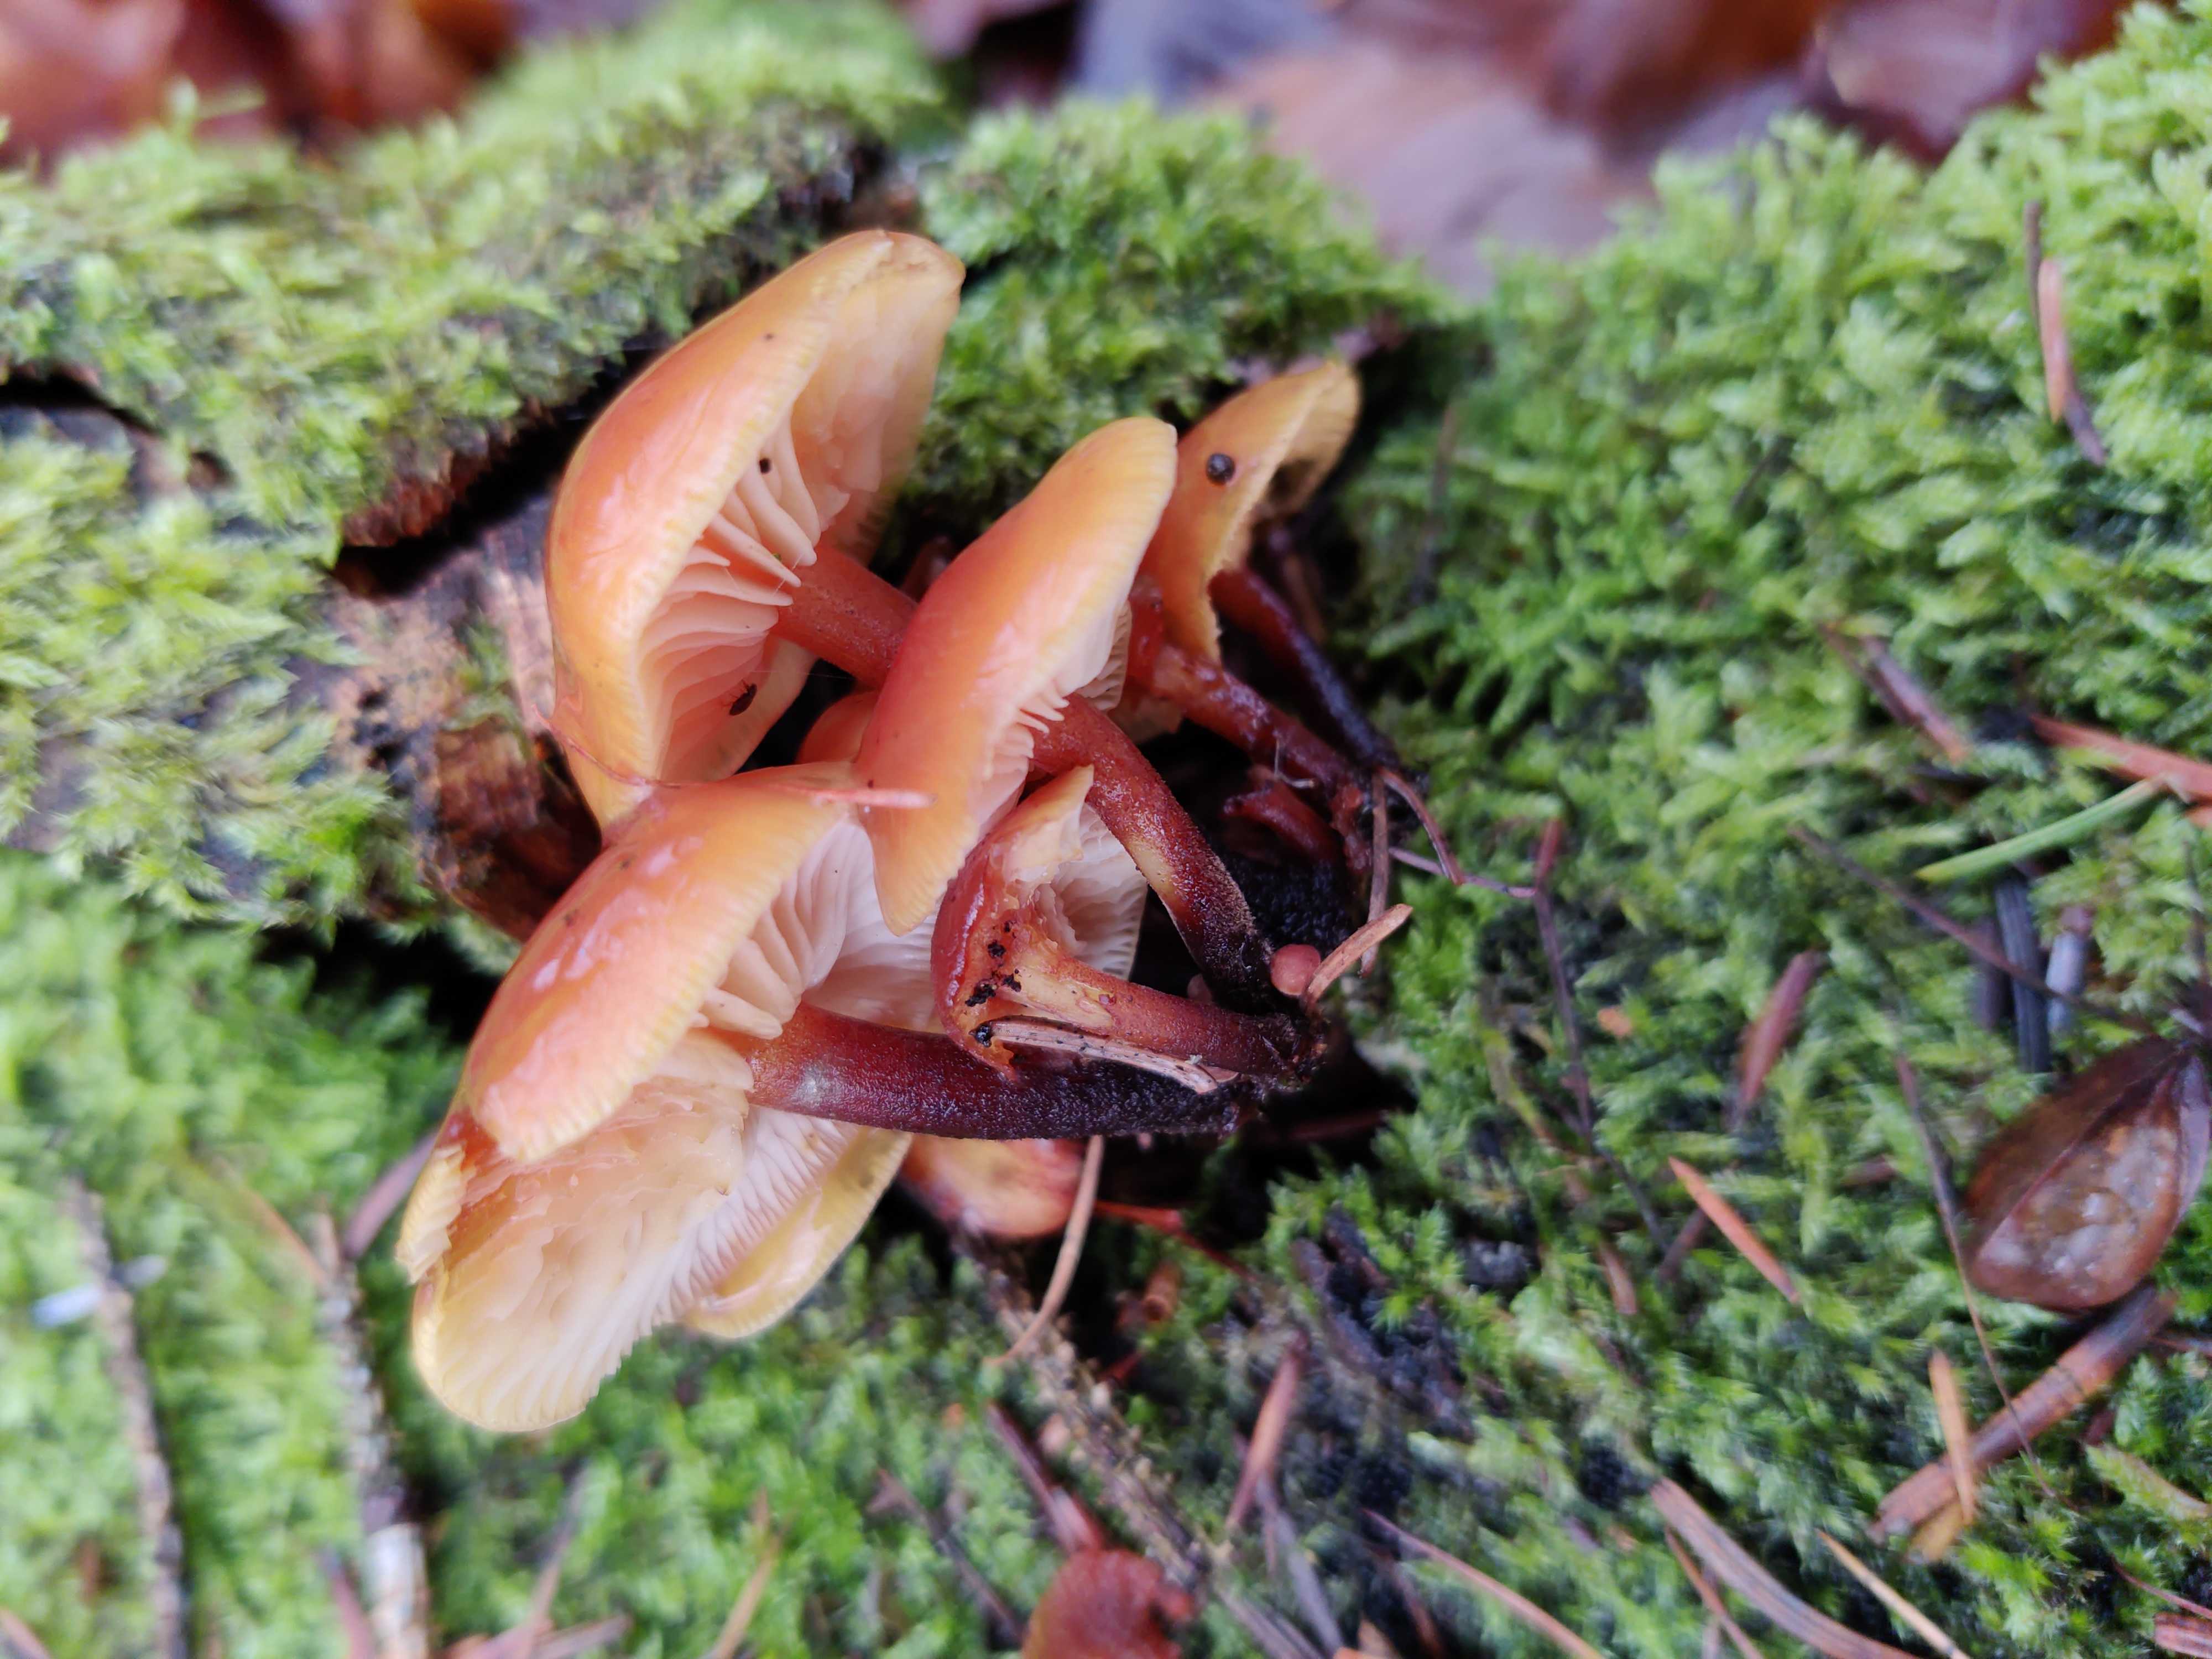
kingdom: Fungi
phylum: Basidiomycota
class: Agaricomycetes
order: Agaricales
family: Physalacriaceae
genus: Flammulina
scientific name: Flammulina velutipes
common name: gul fløjlsfod
